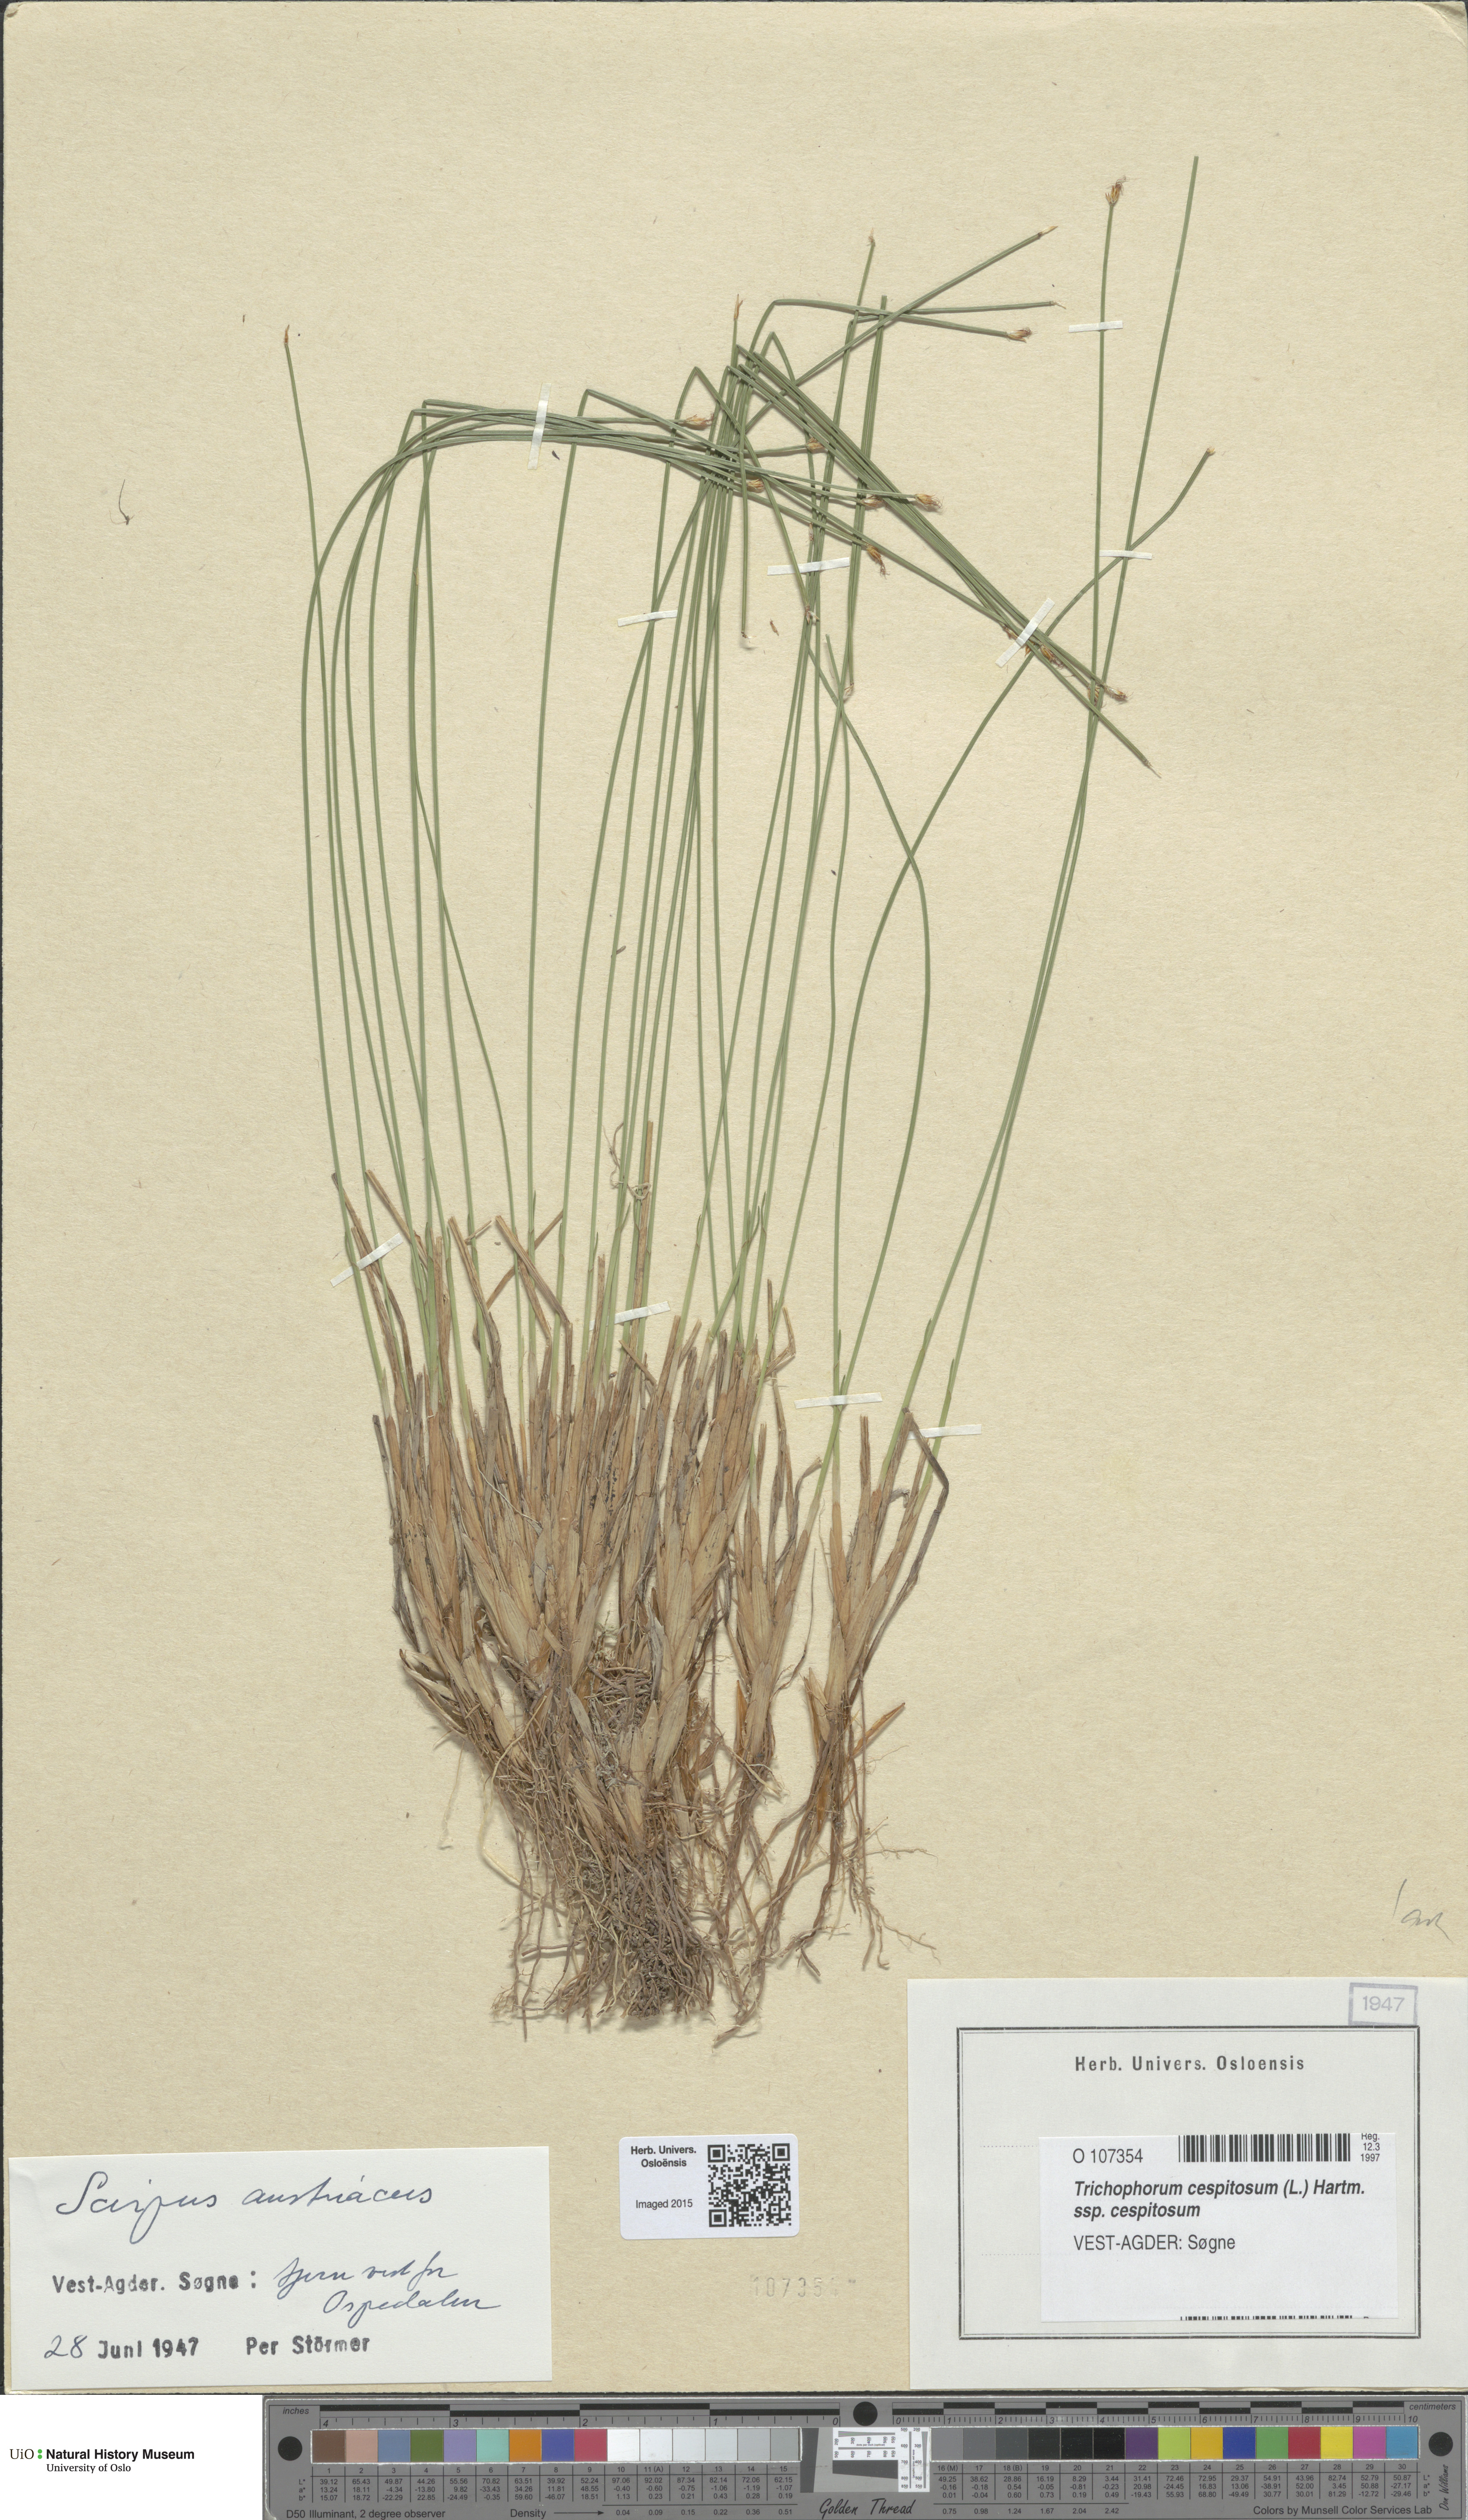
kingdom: Plantae
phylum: Tracheophyta
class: Liliopsida
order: Poales
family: Cyperaceae
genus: Trichophorum
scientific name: Trichophorum cespitosum
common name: Cespitose bulrush
